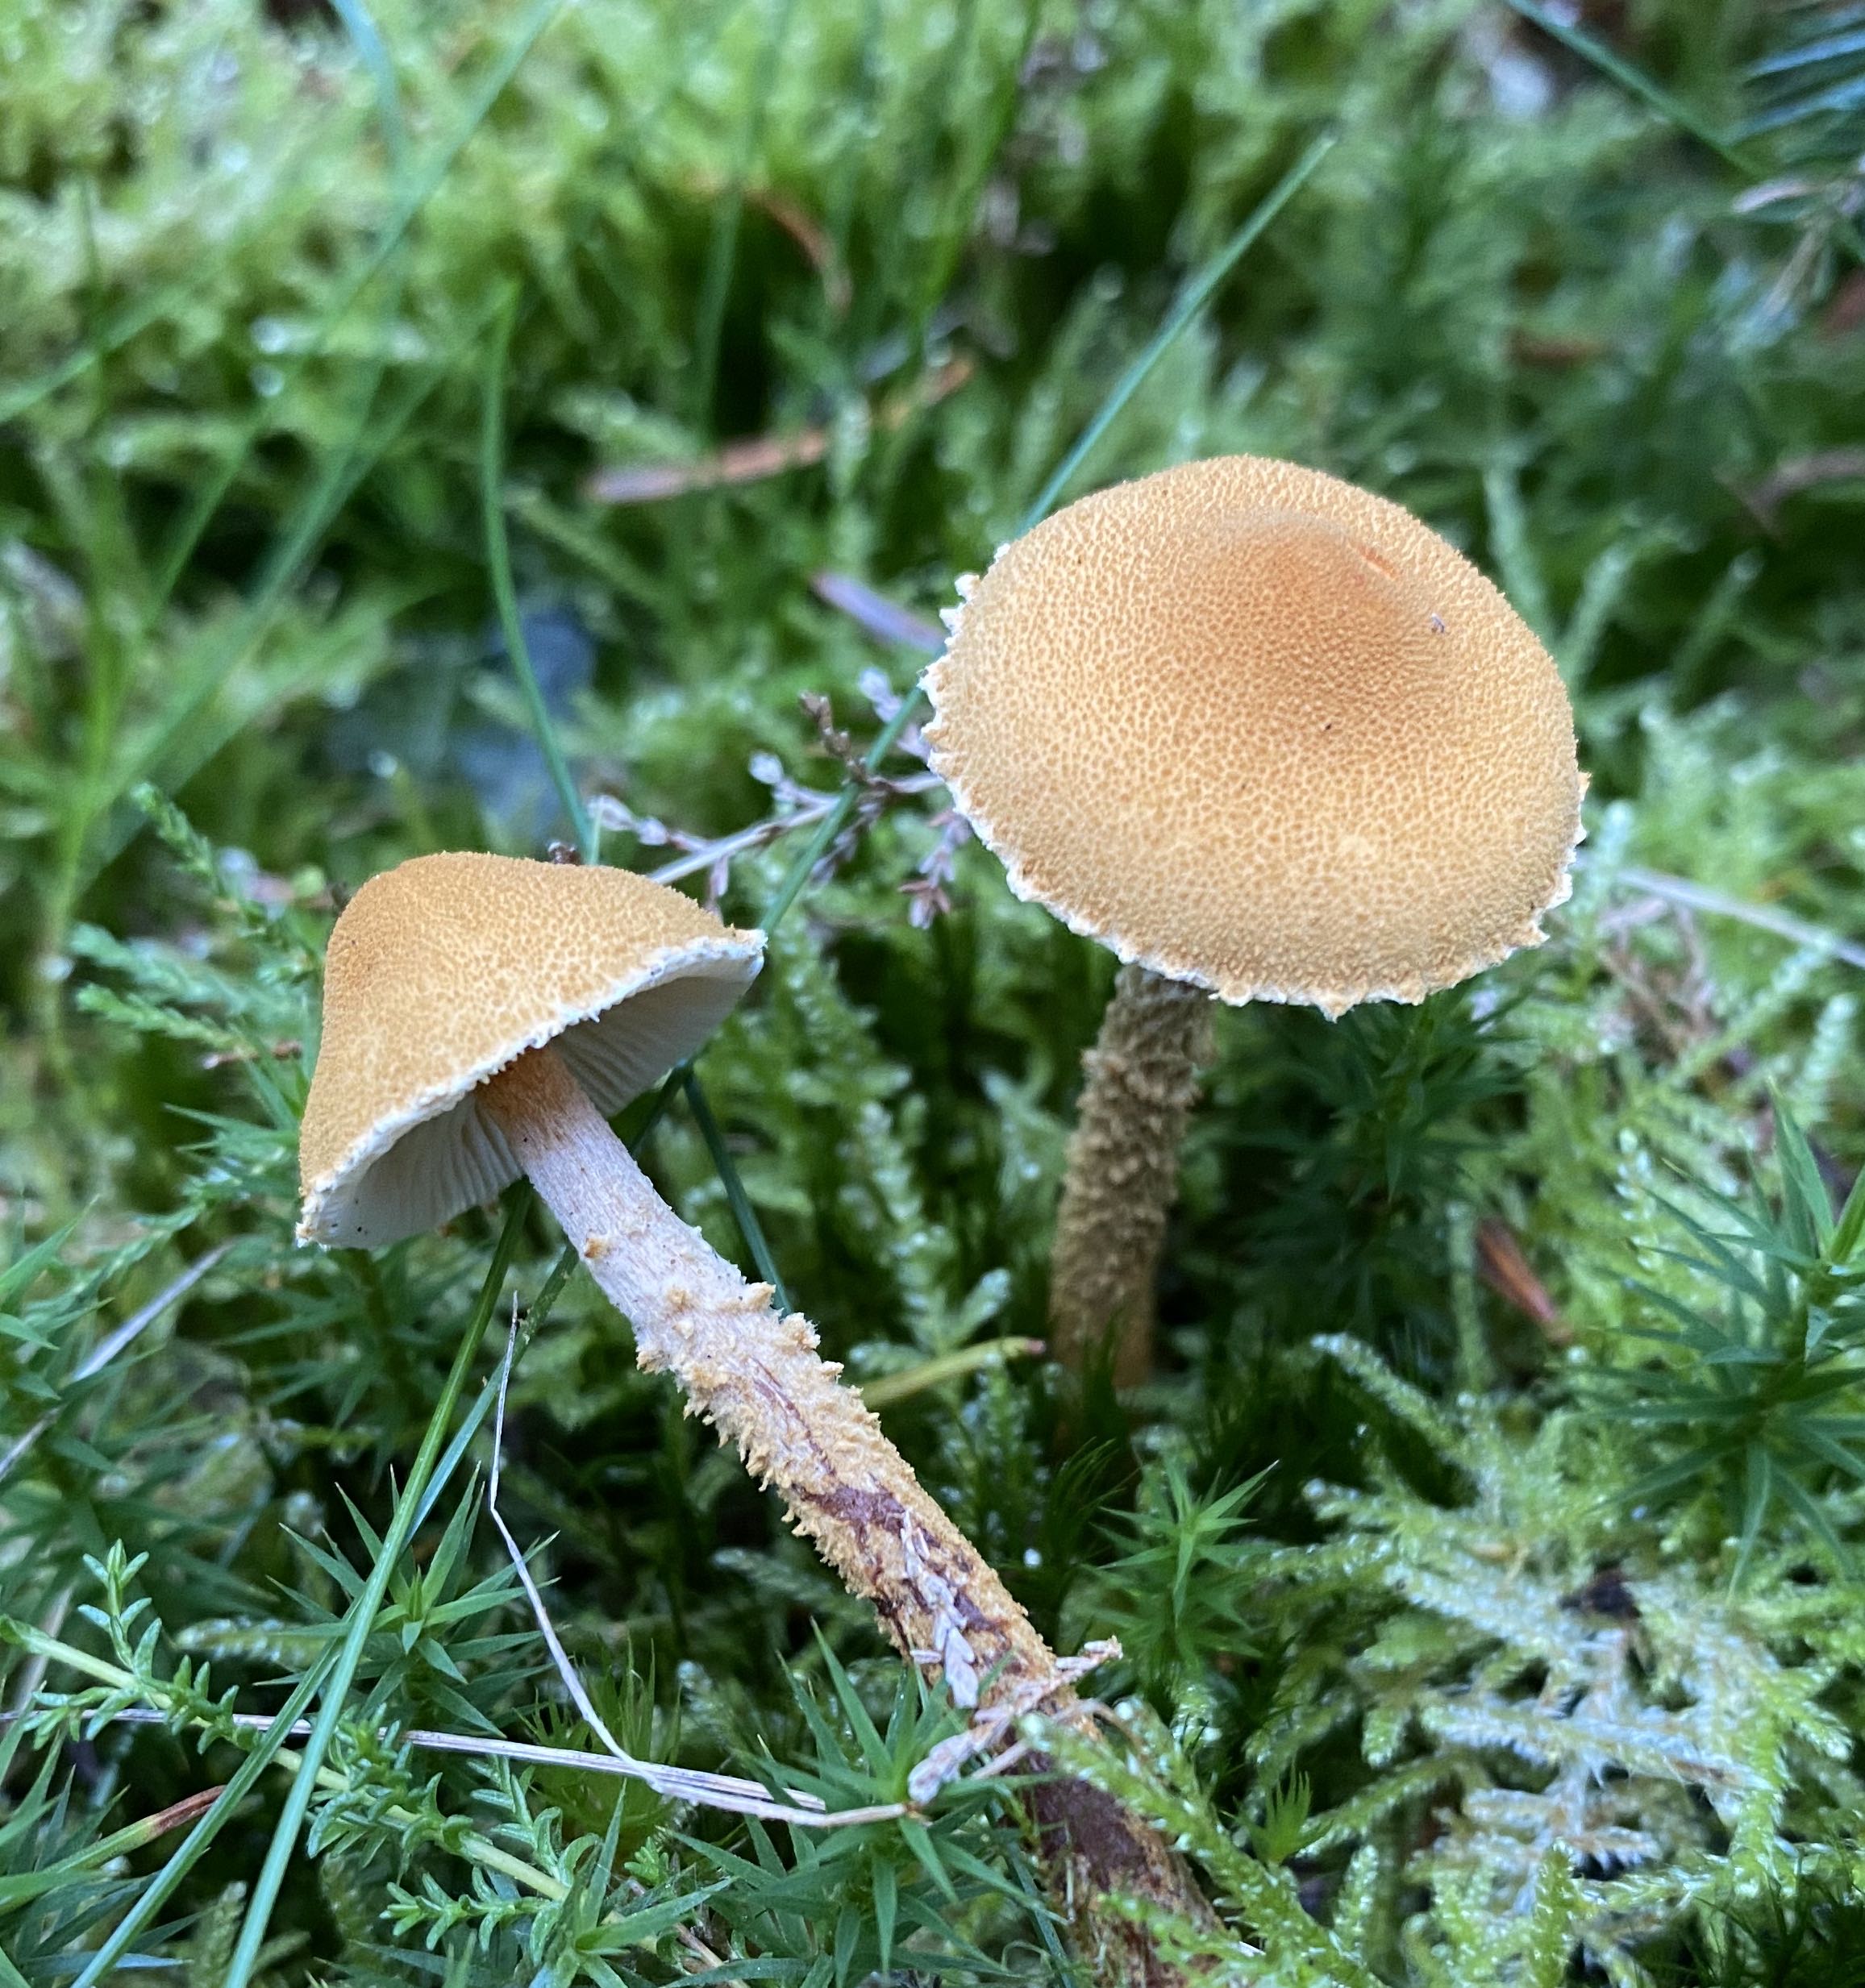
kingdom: Fungi
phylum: Basidiomycota
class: Agaricomycetes
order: Agaricales
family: Tricholomataceae
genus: Cystoderma
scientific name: Cystoderma amianthinum
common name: okkergul grynhat
